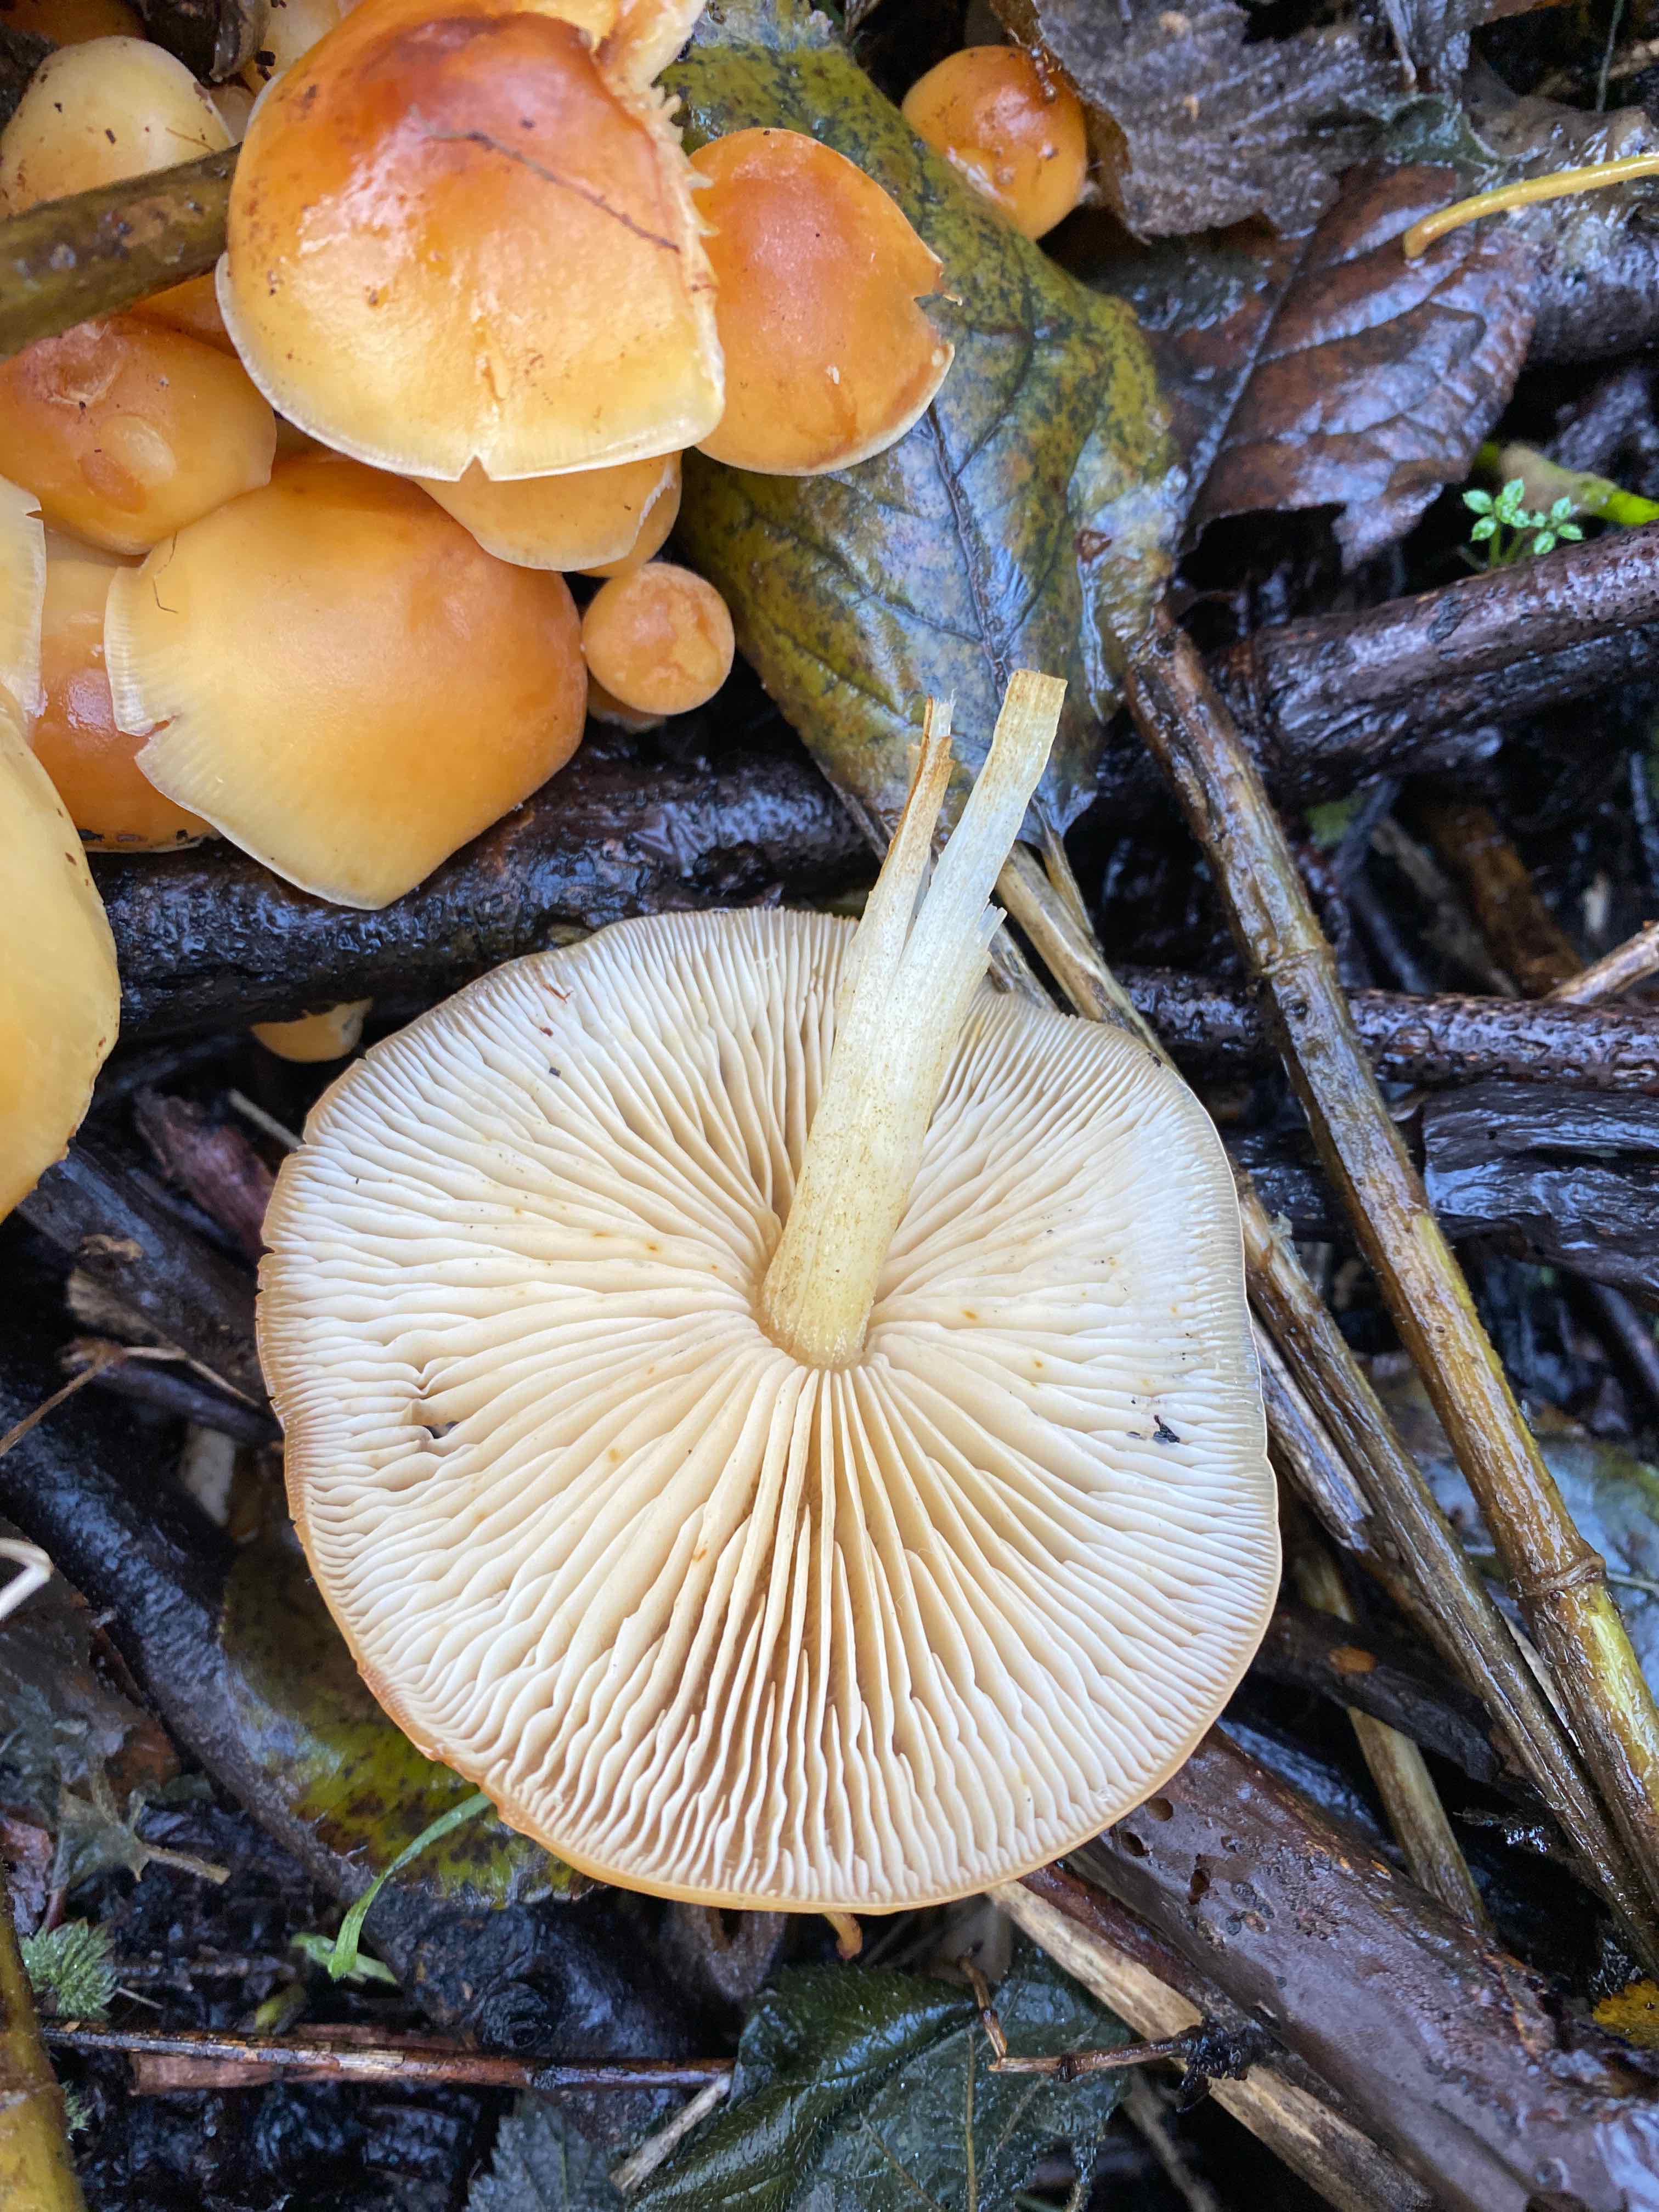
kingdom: Fungi
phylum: Basidiomycota
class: Agaricomycetes
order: Agaricales
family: Physalacriaceae
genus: Flammulina
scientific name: Flammulina
